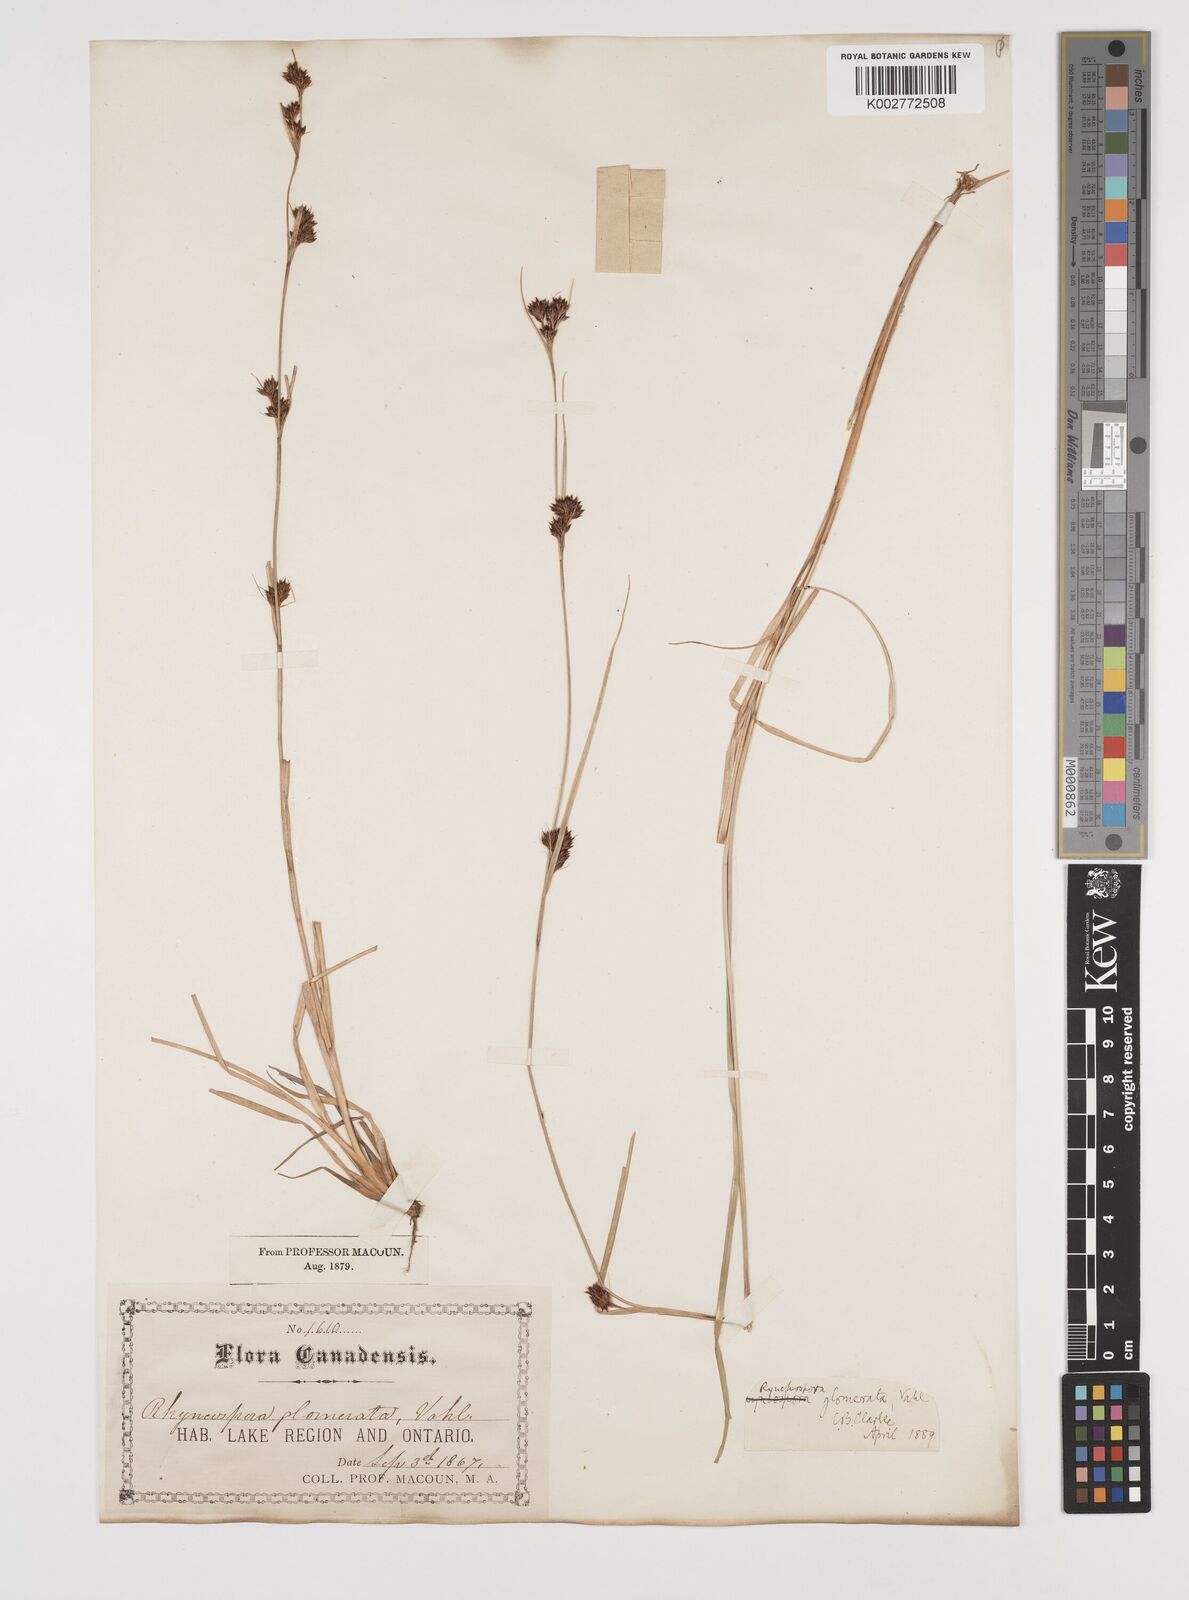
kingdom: Plantae
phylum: Tracheophyta
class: Liliopsida
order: Poales
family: Cyperaceae
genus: Rhynchospora
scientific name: Rhynchospora glomerata
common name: Cluster beak sedge
